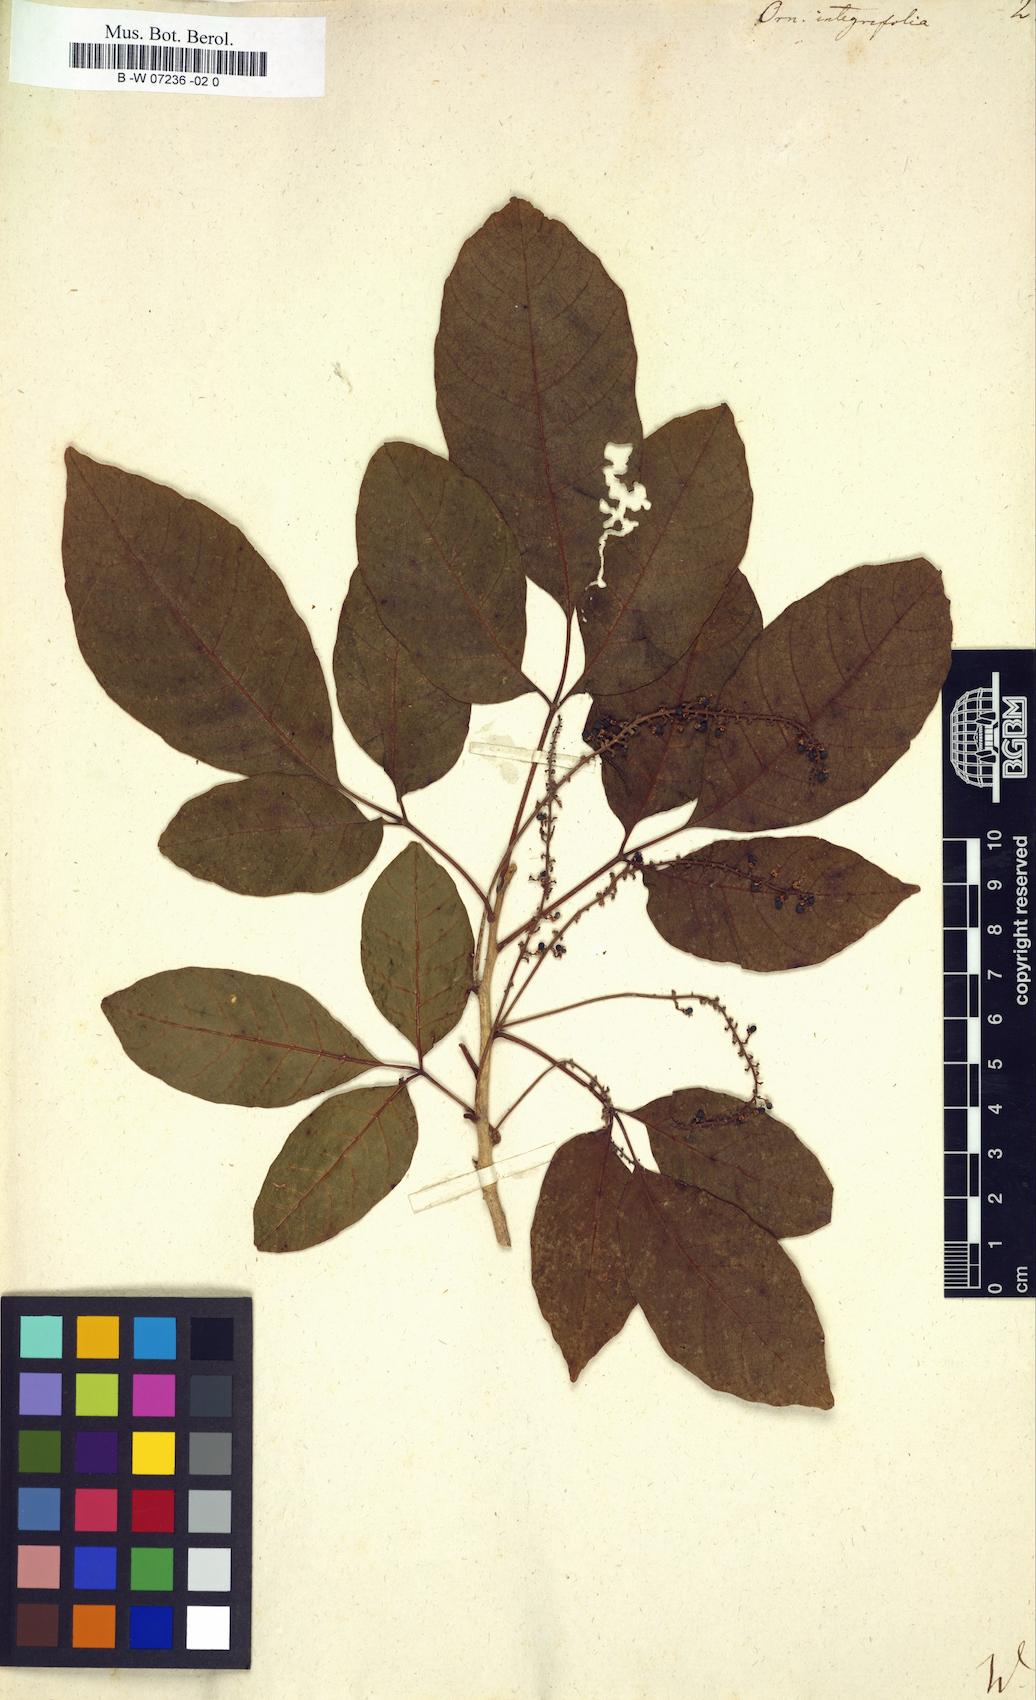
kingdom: Plantae
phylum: Tracheophyta
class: Magnoliopsida
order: Sapindales
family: Sapindaceae
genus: Allophylus
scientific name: Allophylus borbonicus
